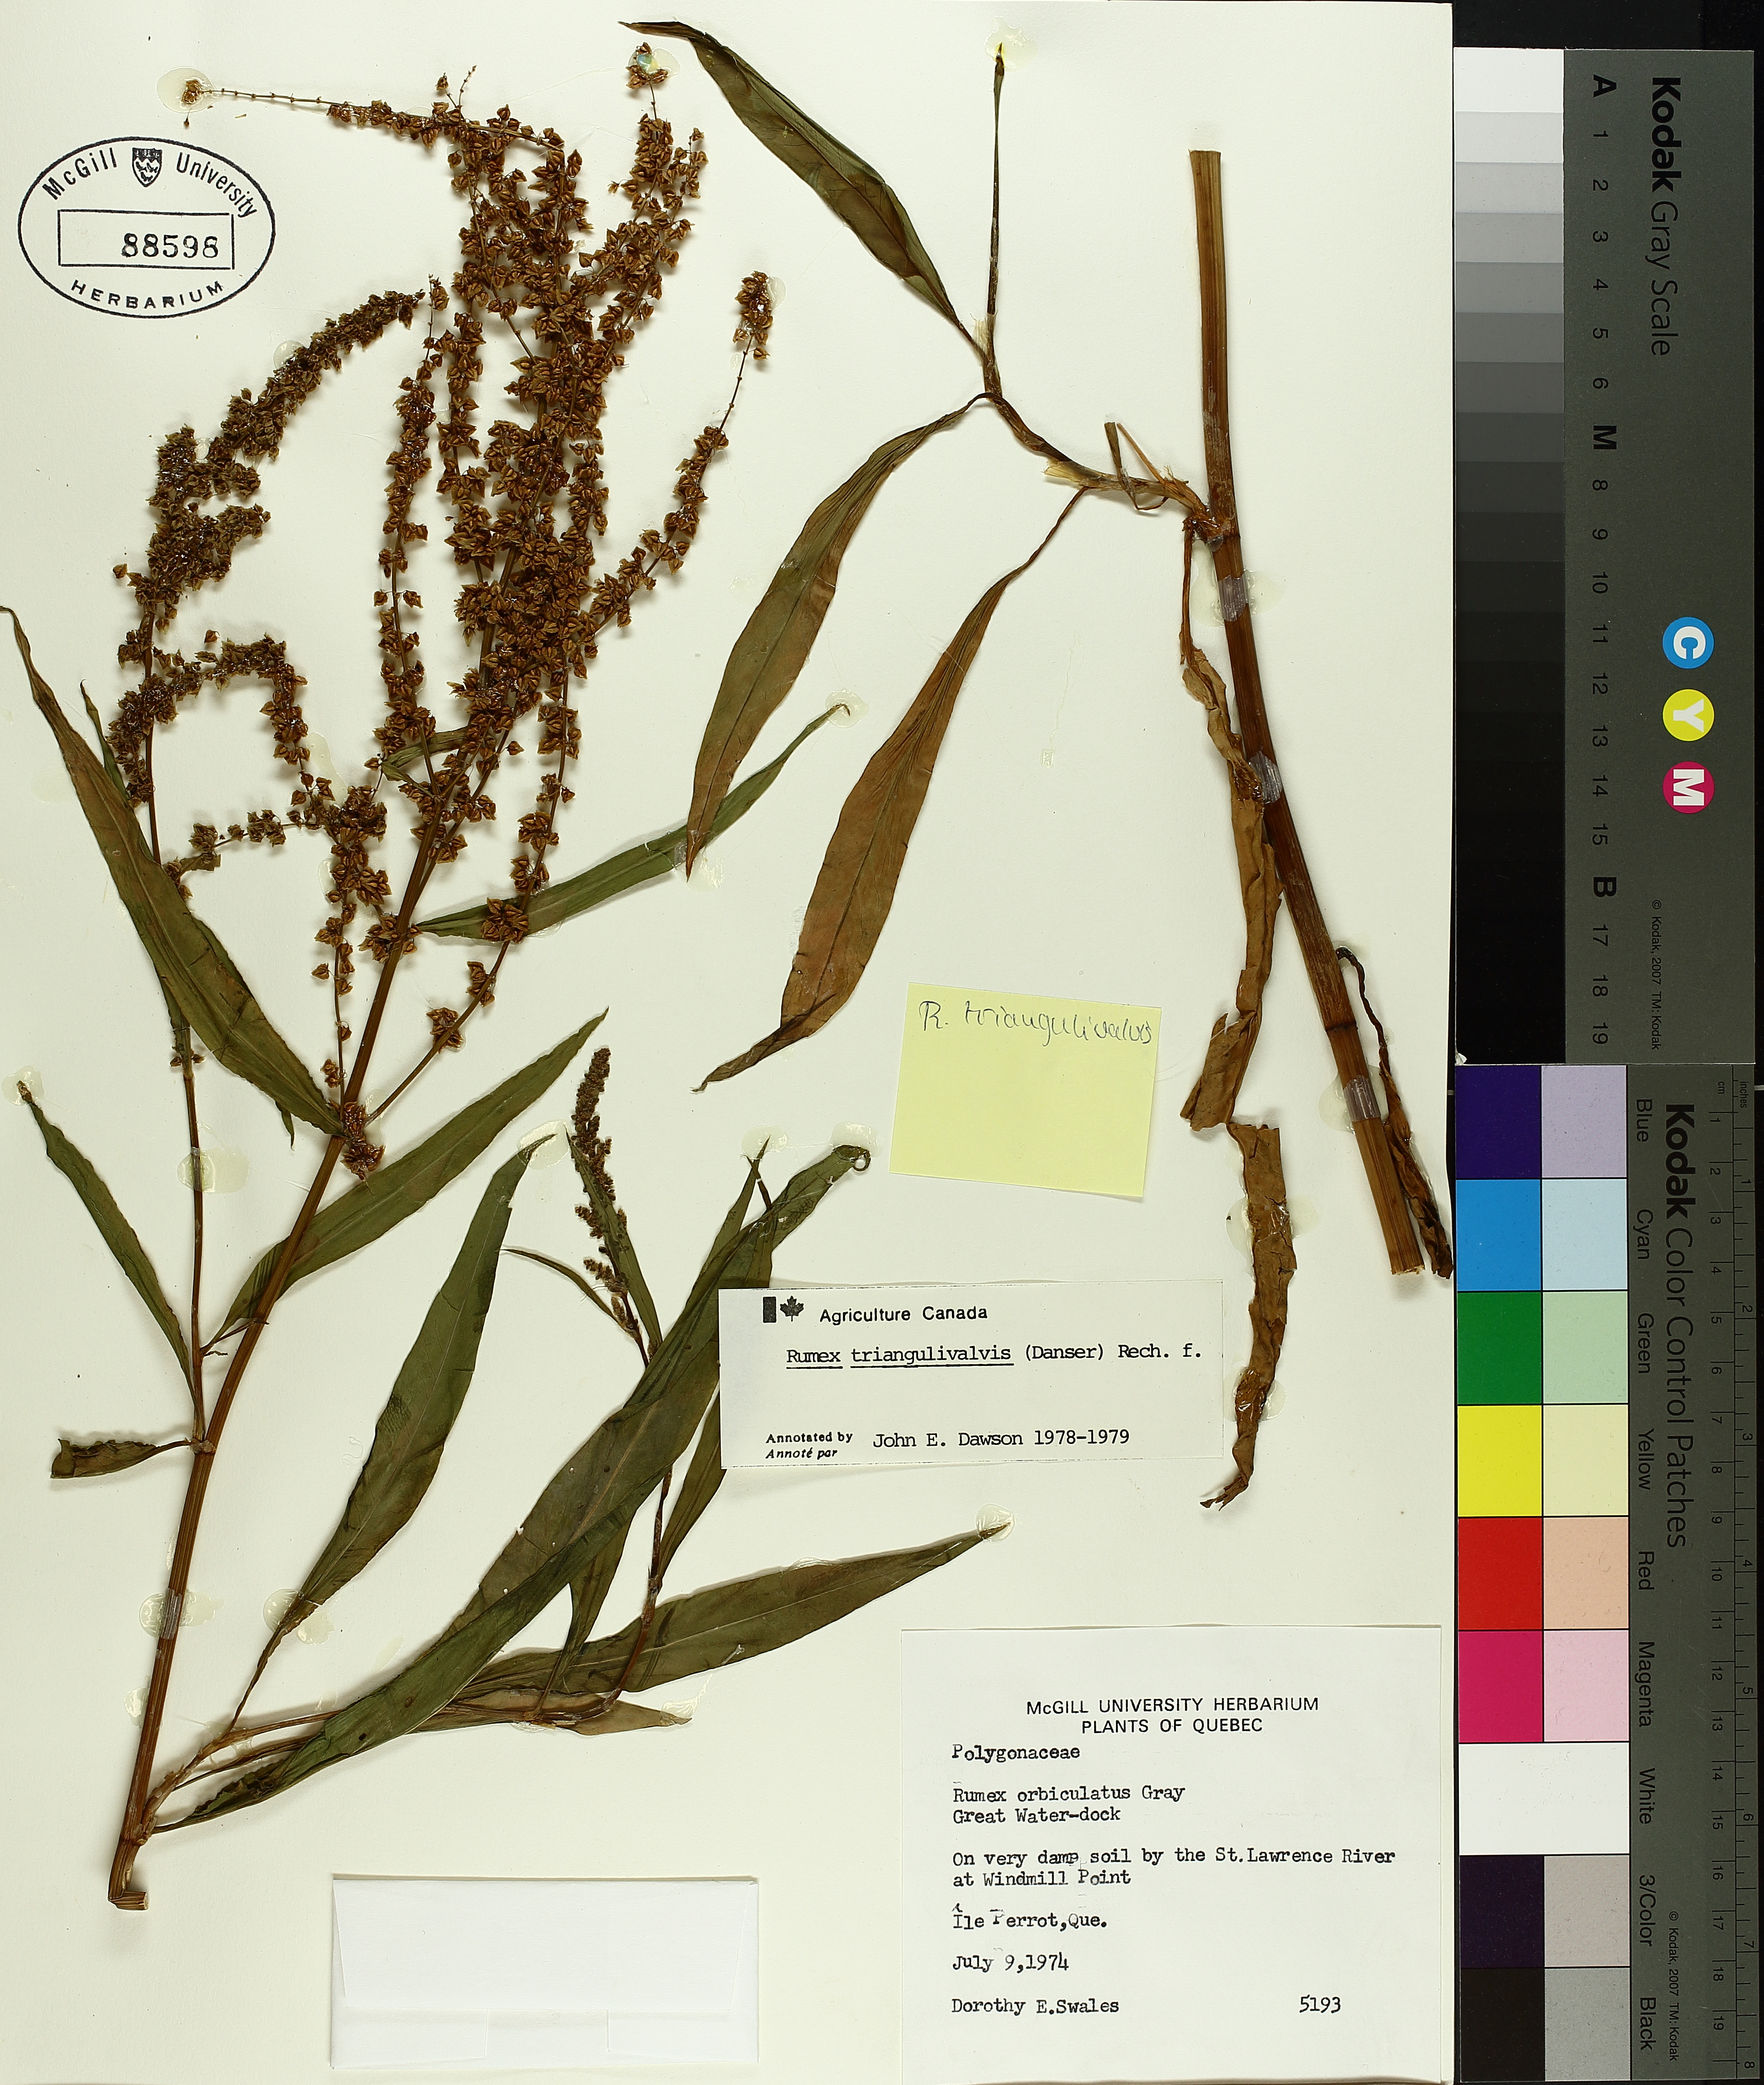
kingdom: Plantae
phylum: Tracheophyta
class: Magnoliopsida
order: Caryophyllales
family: Polygonaceae
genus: Rumex
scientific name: Rumex triangulivalvis
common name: Triangular-valve dock
